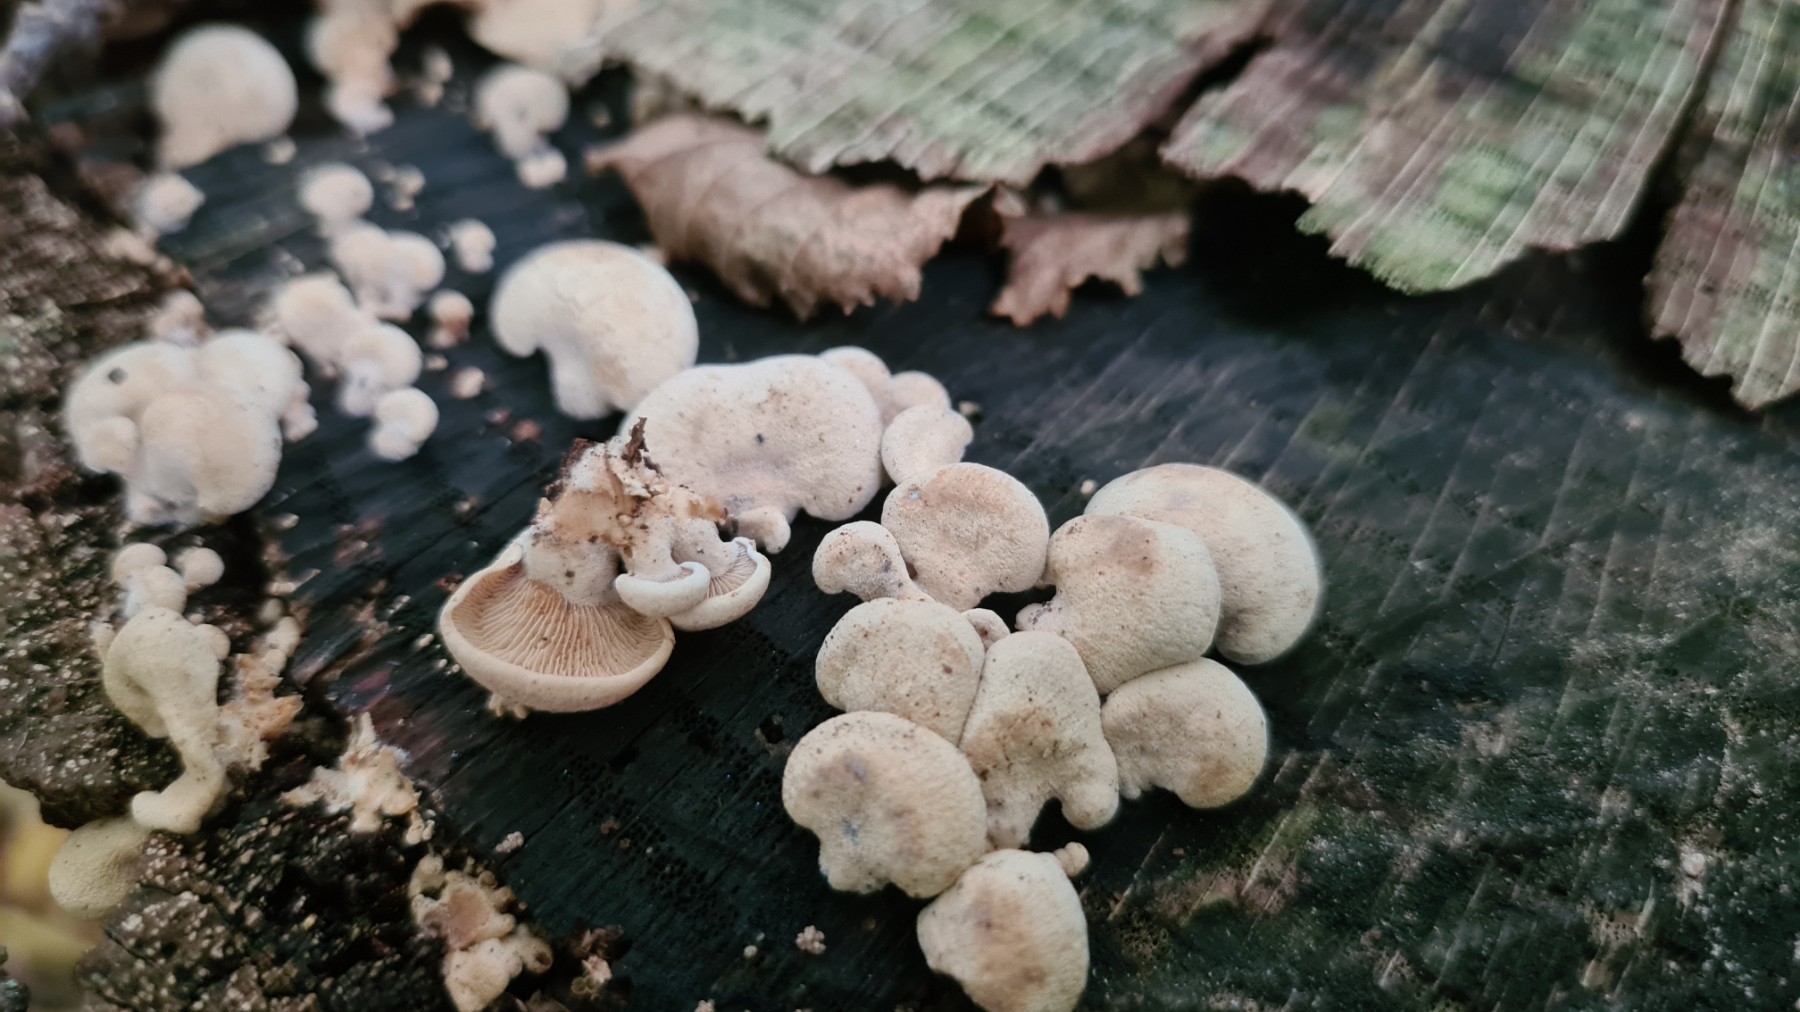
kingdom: Fungi
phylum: Basidiomycota
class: Agaricomycetes
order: Agaricales
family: Mycenaceae
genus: Panellus
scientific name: Panellus stipticus
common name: kliddet epaulethat
